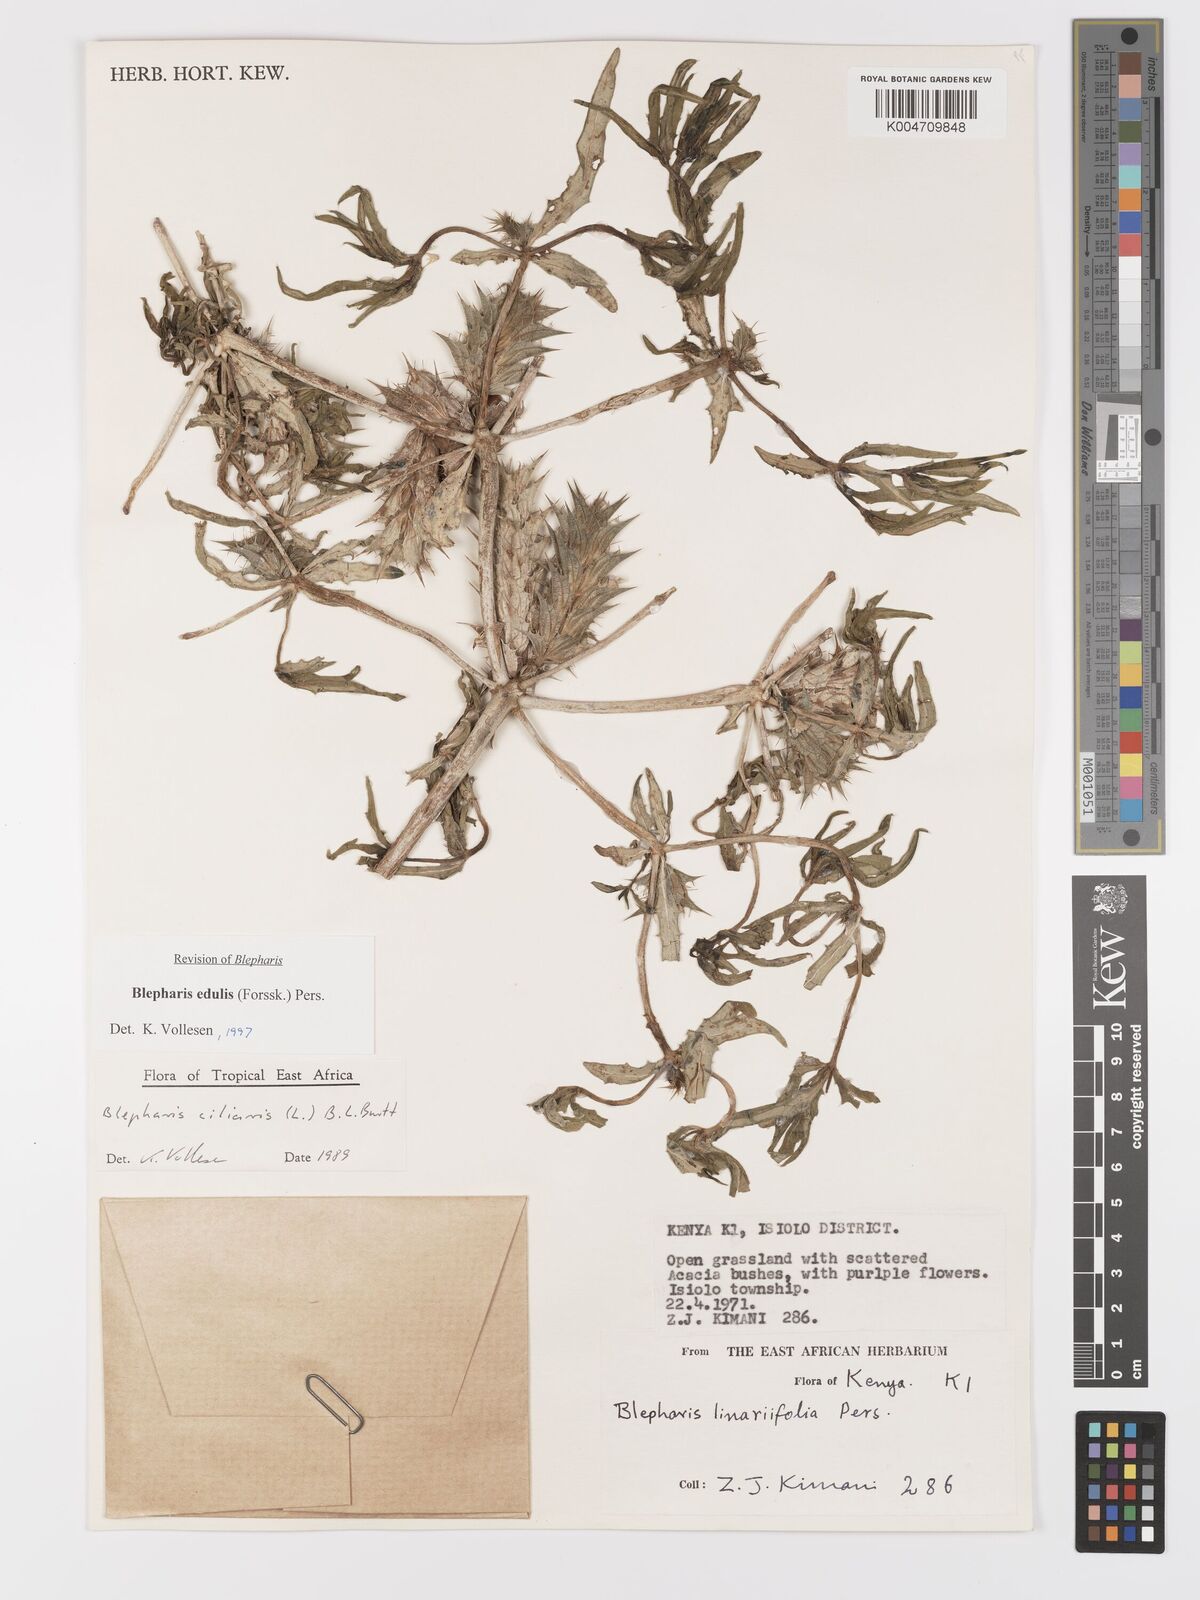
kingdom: Plantae
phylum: Tracheophyta
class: Magnoliopsida
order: Lamiales
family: Acanthaceae
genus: Blepharis
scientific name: Blepharis edulis
